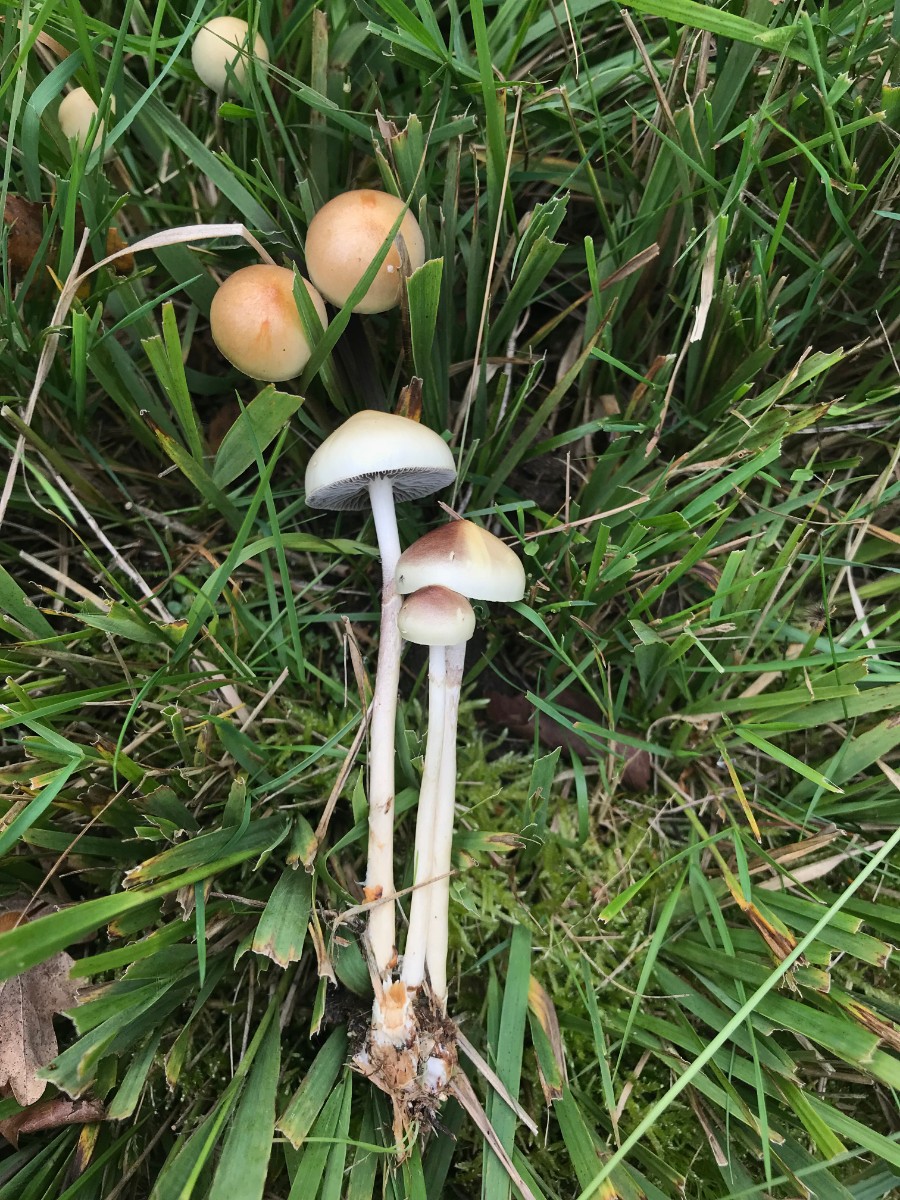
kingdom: Fungi
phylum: Basidiomycota
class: Agaricomycetes
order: Agaricales
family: Strophariaceae
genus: Protostropharia
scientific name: Protostropharia dorsipora
